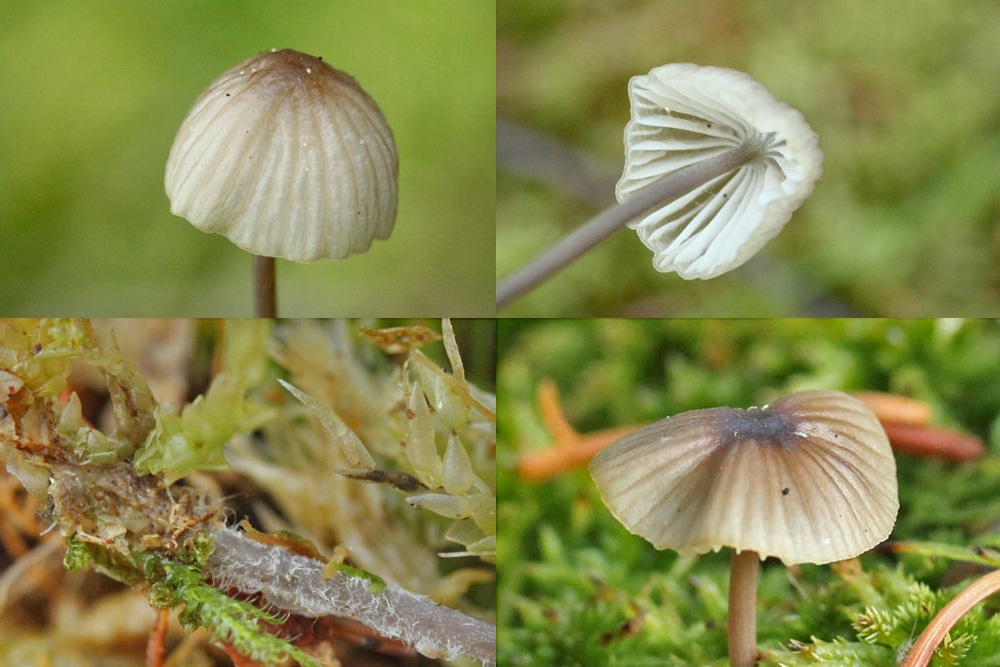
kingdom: Fungi
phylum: Basidiomycota
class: Agaricomycetes
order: Agaricales
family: Mycenaceae
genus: Mycena
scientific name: Mycena galopus
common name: hvidmælket huesvamp
